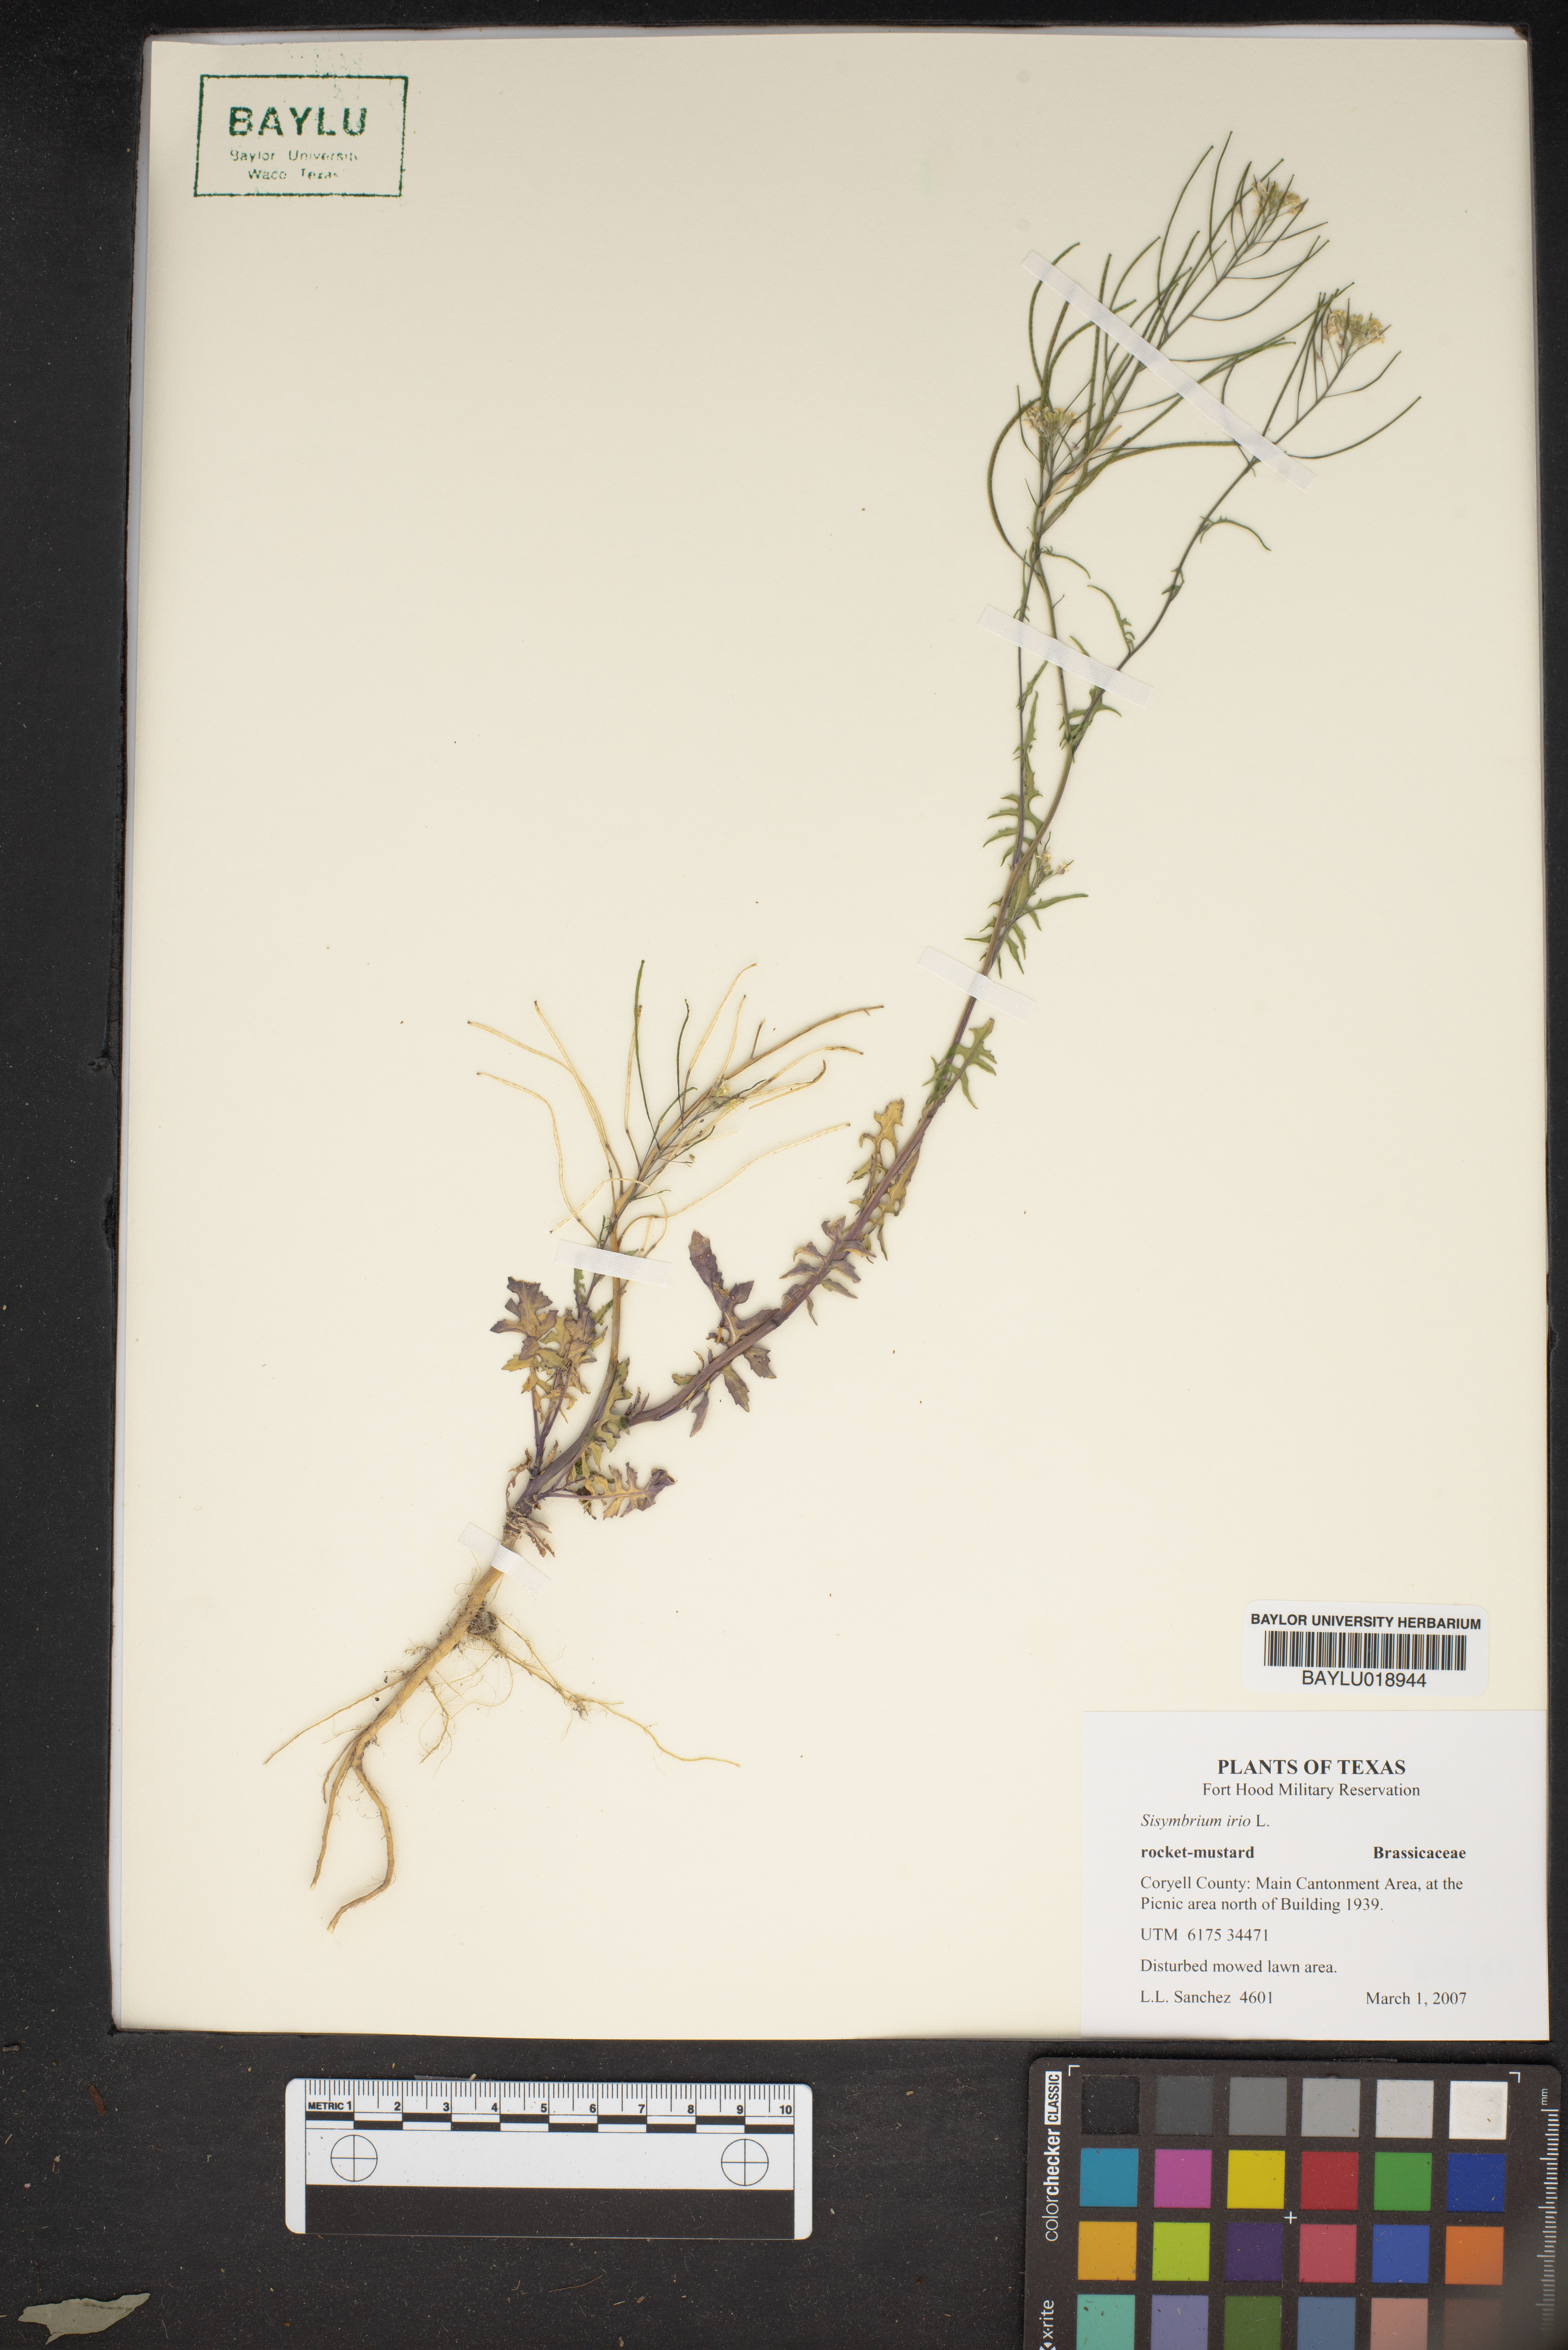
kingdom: Plantae
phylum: Tracheophyta
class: Magnoliopsida
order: Brassicales
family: Brassicaceae
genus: Sisymbrium
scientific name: Sisymbrium irio
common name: London rocket
